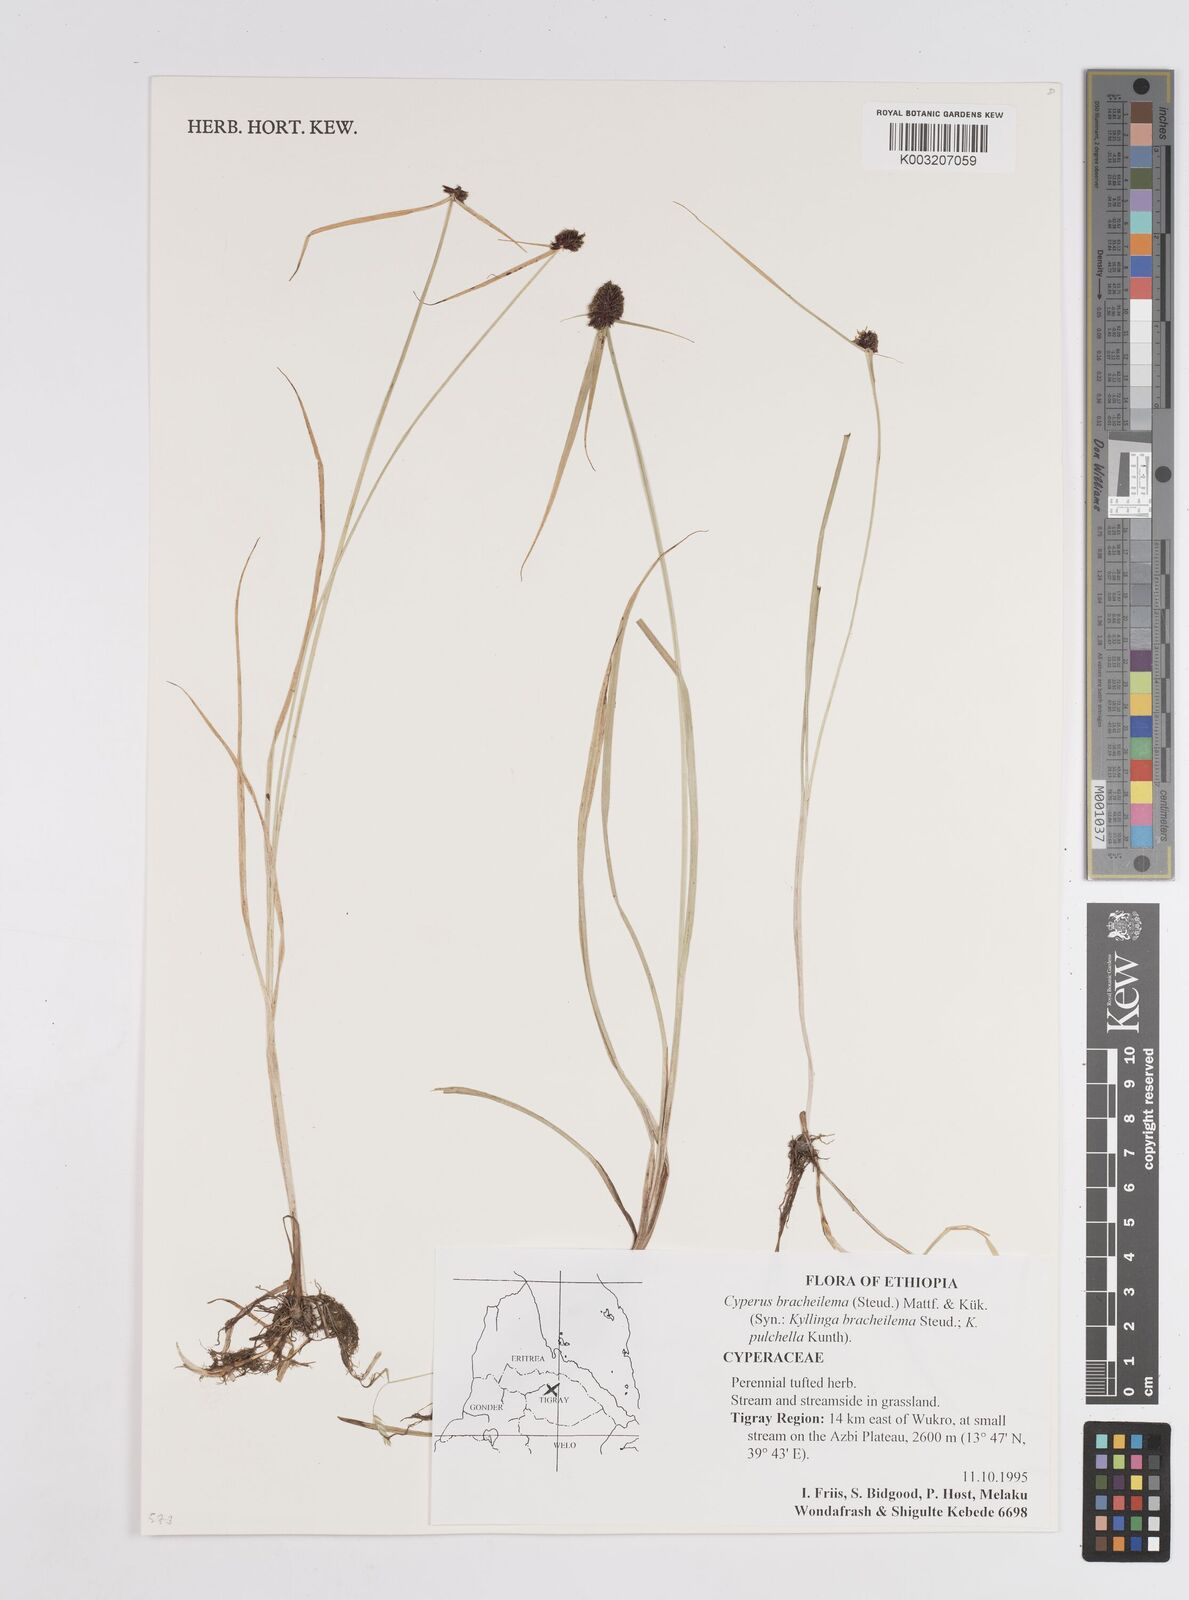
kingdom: Plantae
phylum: Tracheophyta
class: Liliopsida
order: Poales
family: Cyperaceae
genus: Cyperus
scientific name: Cyperus bracheilema
